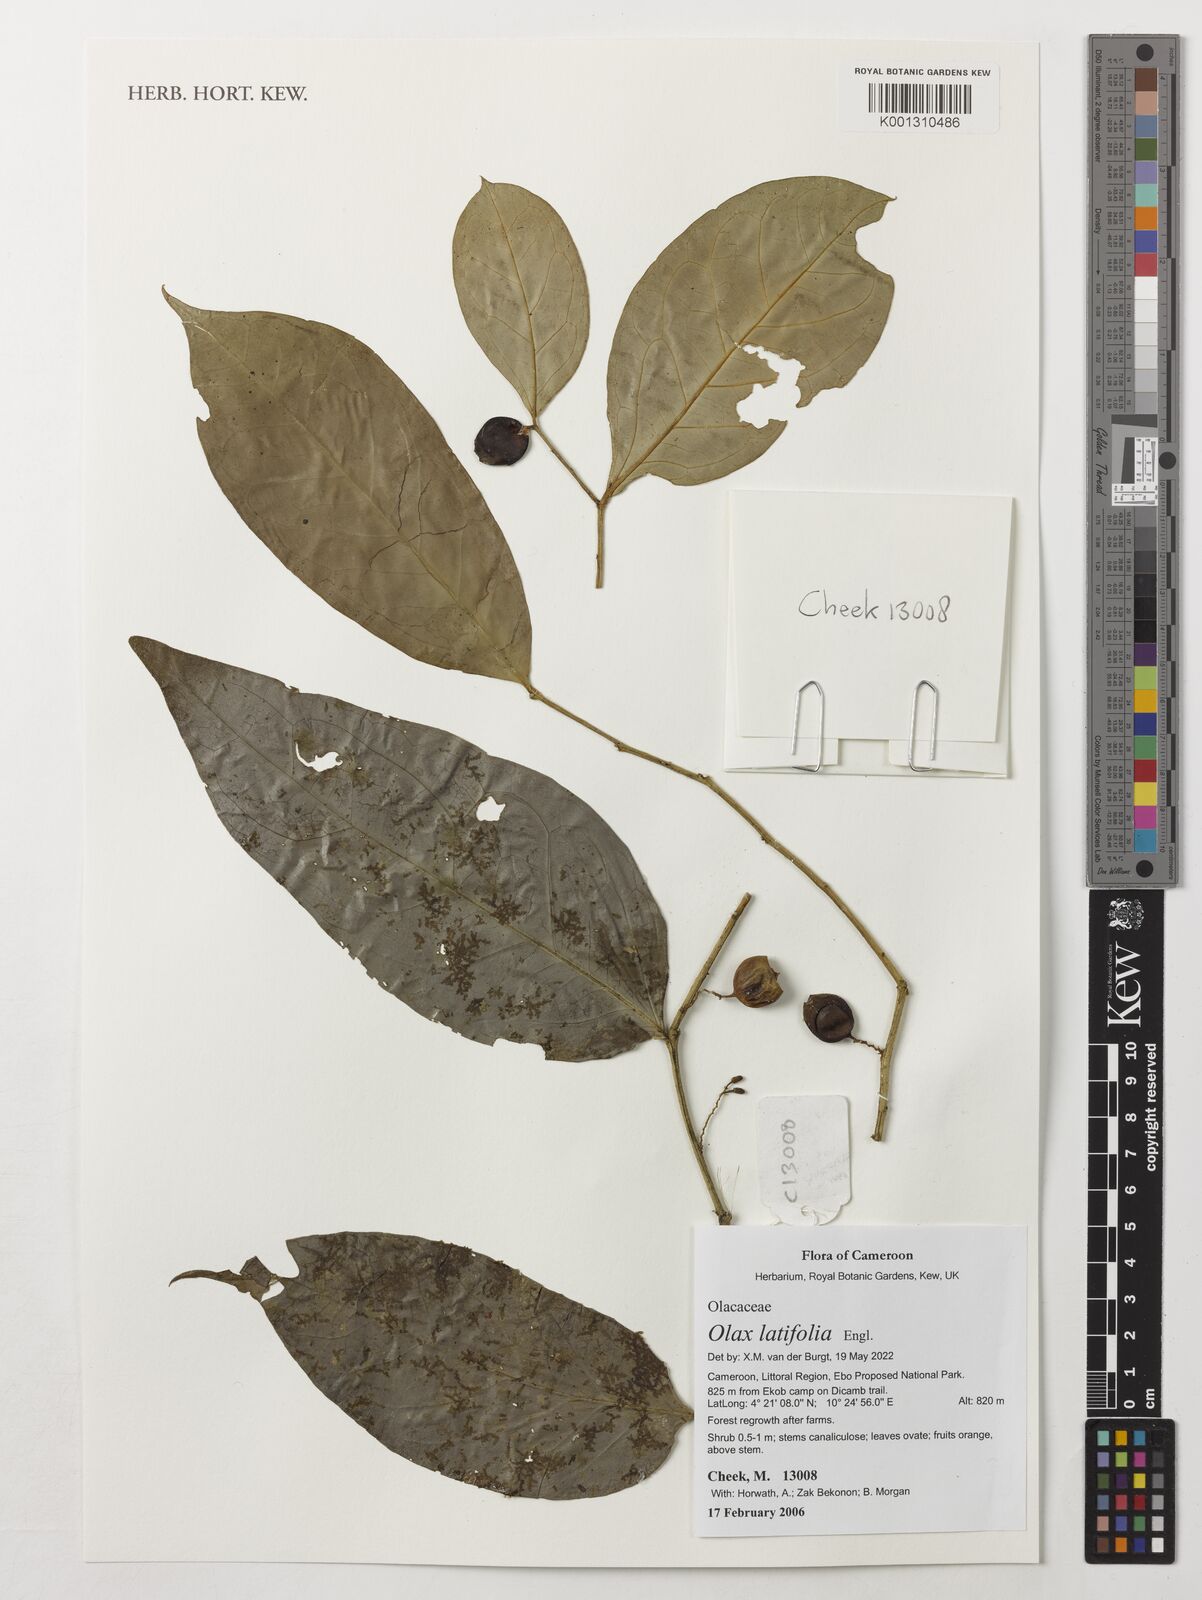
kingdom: Plantae
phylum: Tracheophyta
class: Magnoliopsida
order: Santalales
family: Olacaceae
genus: Olax
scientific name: Olax latifolia
